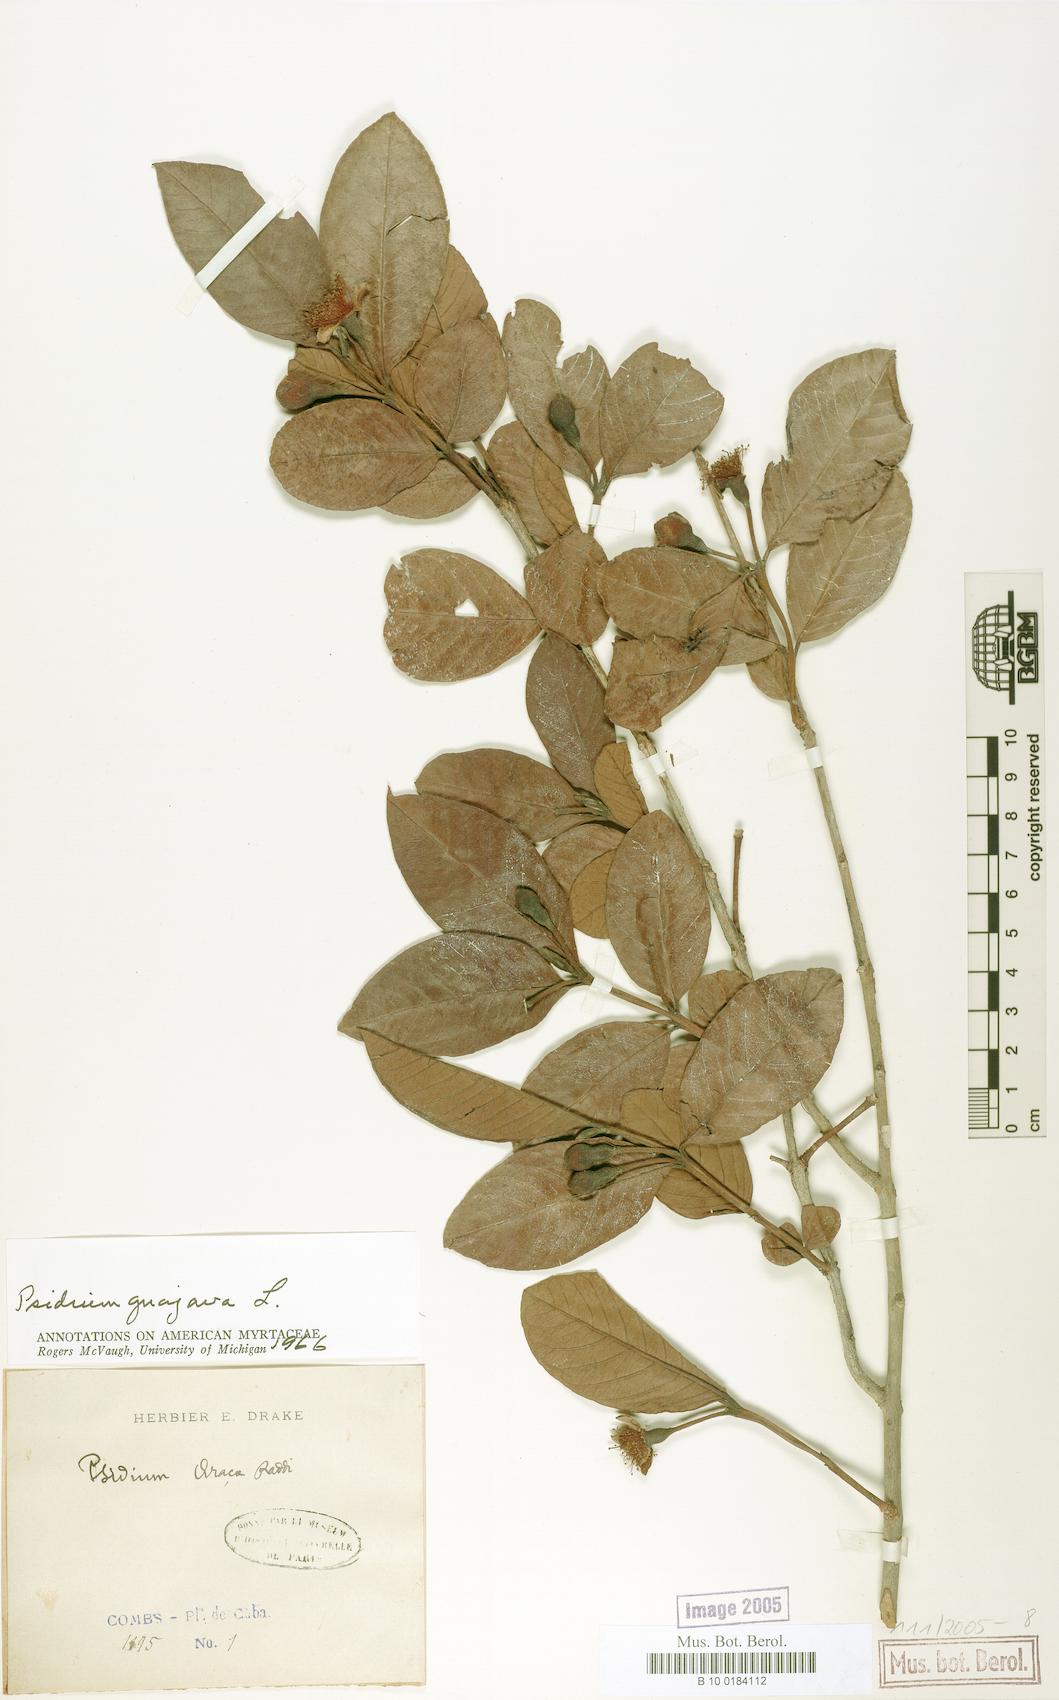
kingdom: Plantae
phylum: Tracheophyta
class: Magnoliopsida
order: Myrtales
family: Myrtaceae
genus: Psidium
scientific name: Psidium guajava
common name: Guava
